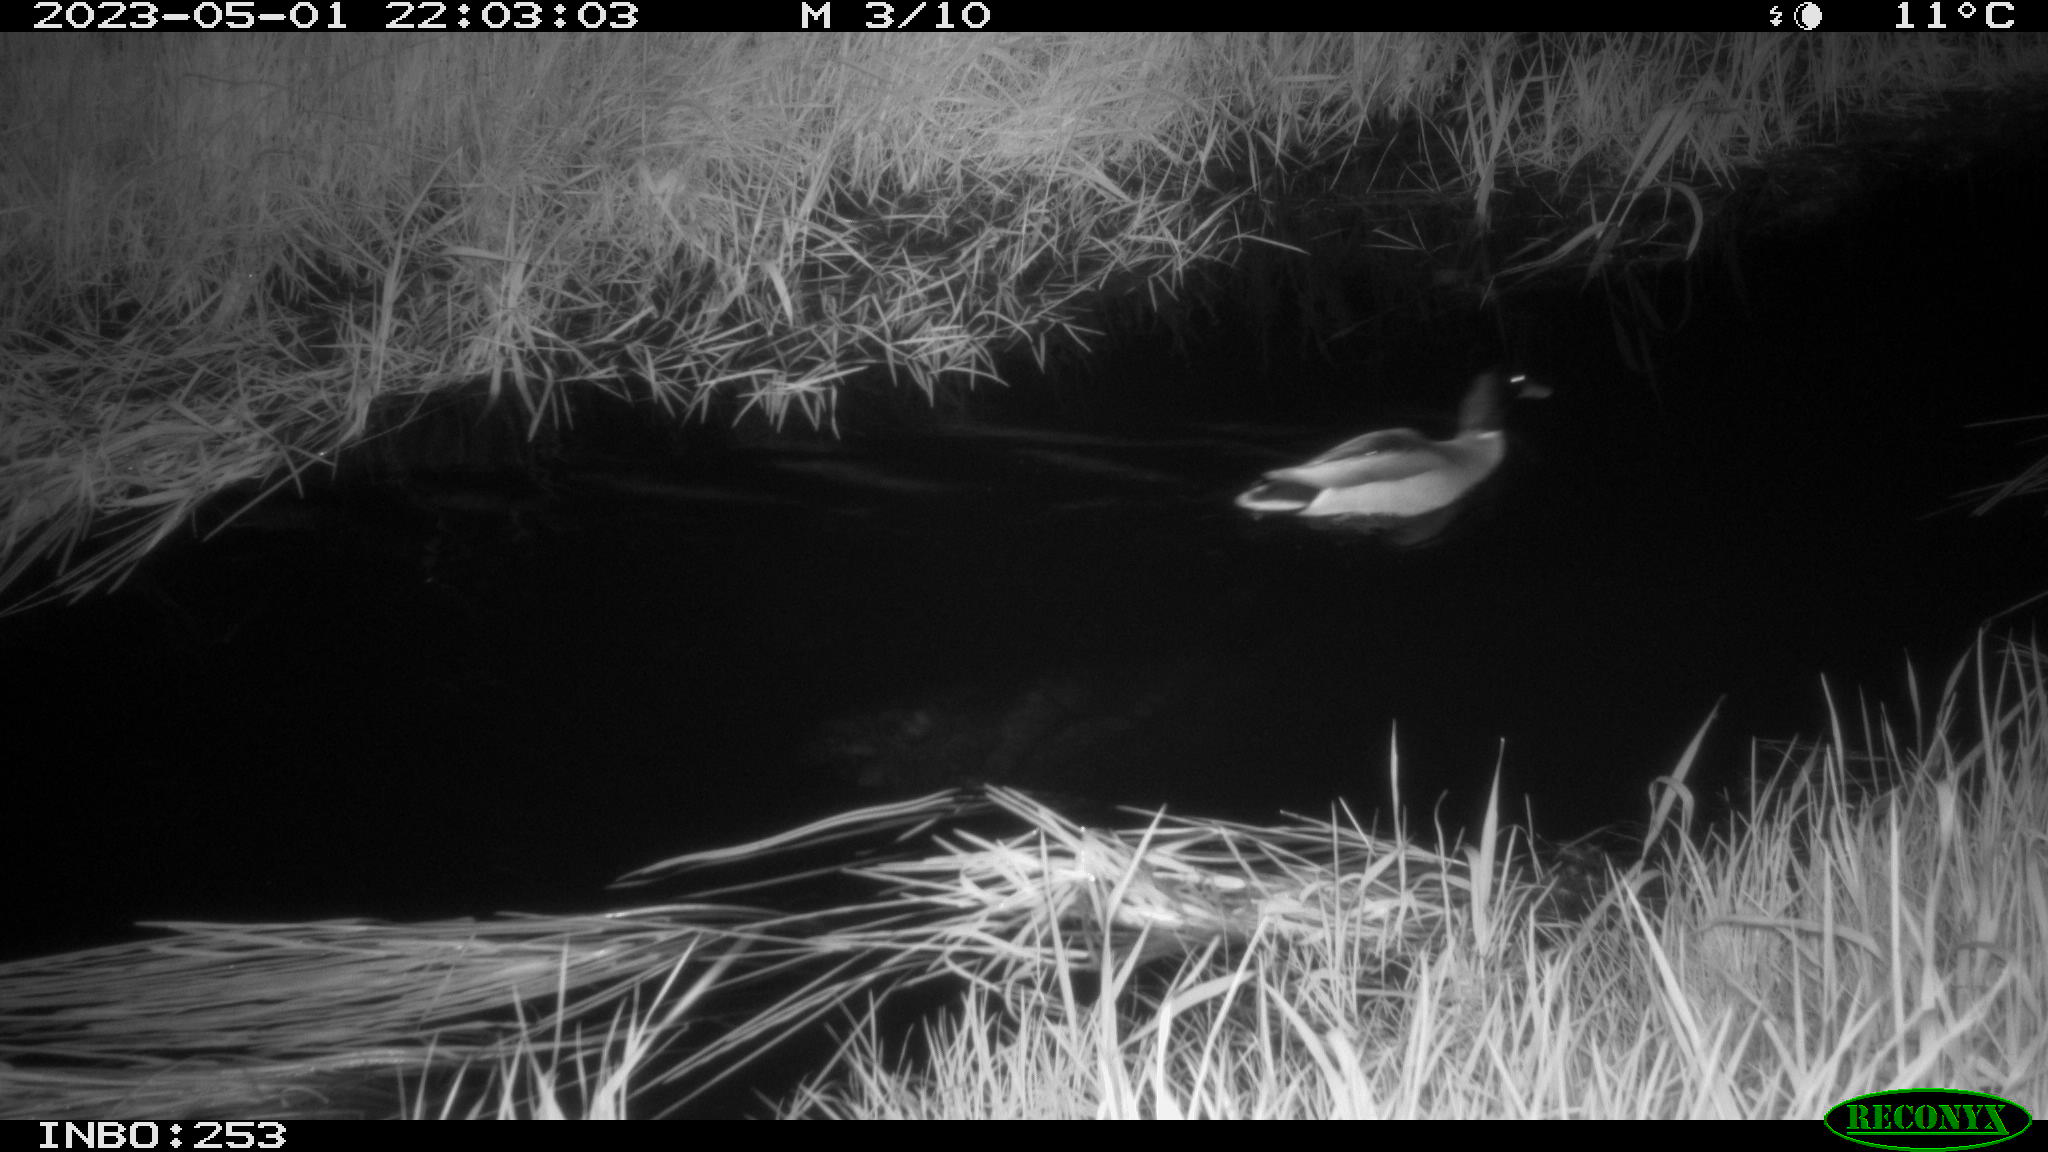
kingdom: Animalia
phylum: Chordata
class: Aves
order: Anseriformes
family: Anatidae
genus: Anas
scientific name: Anas
